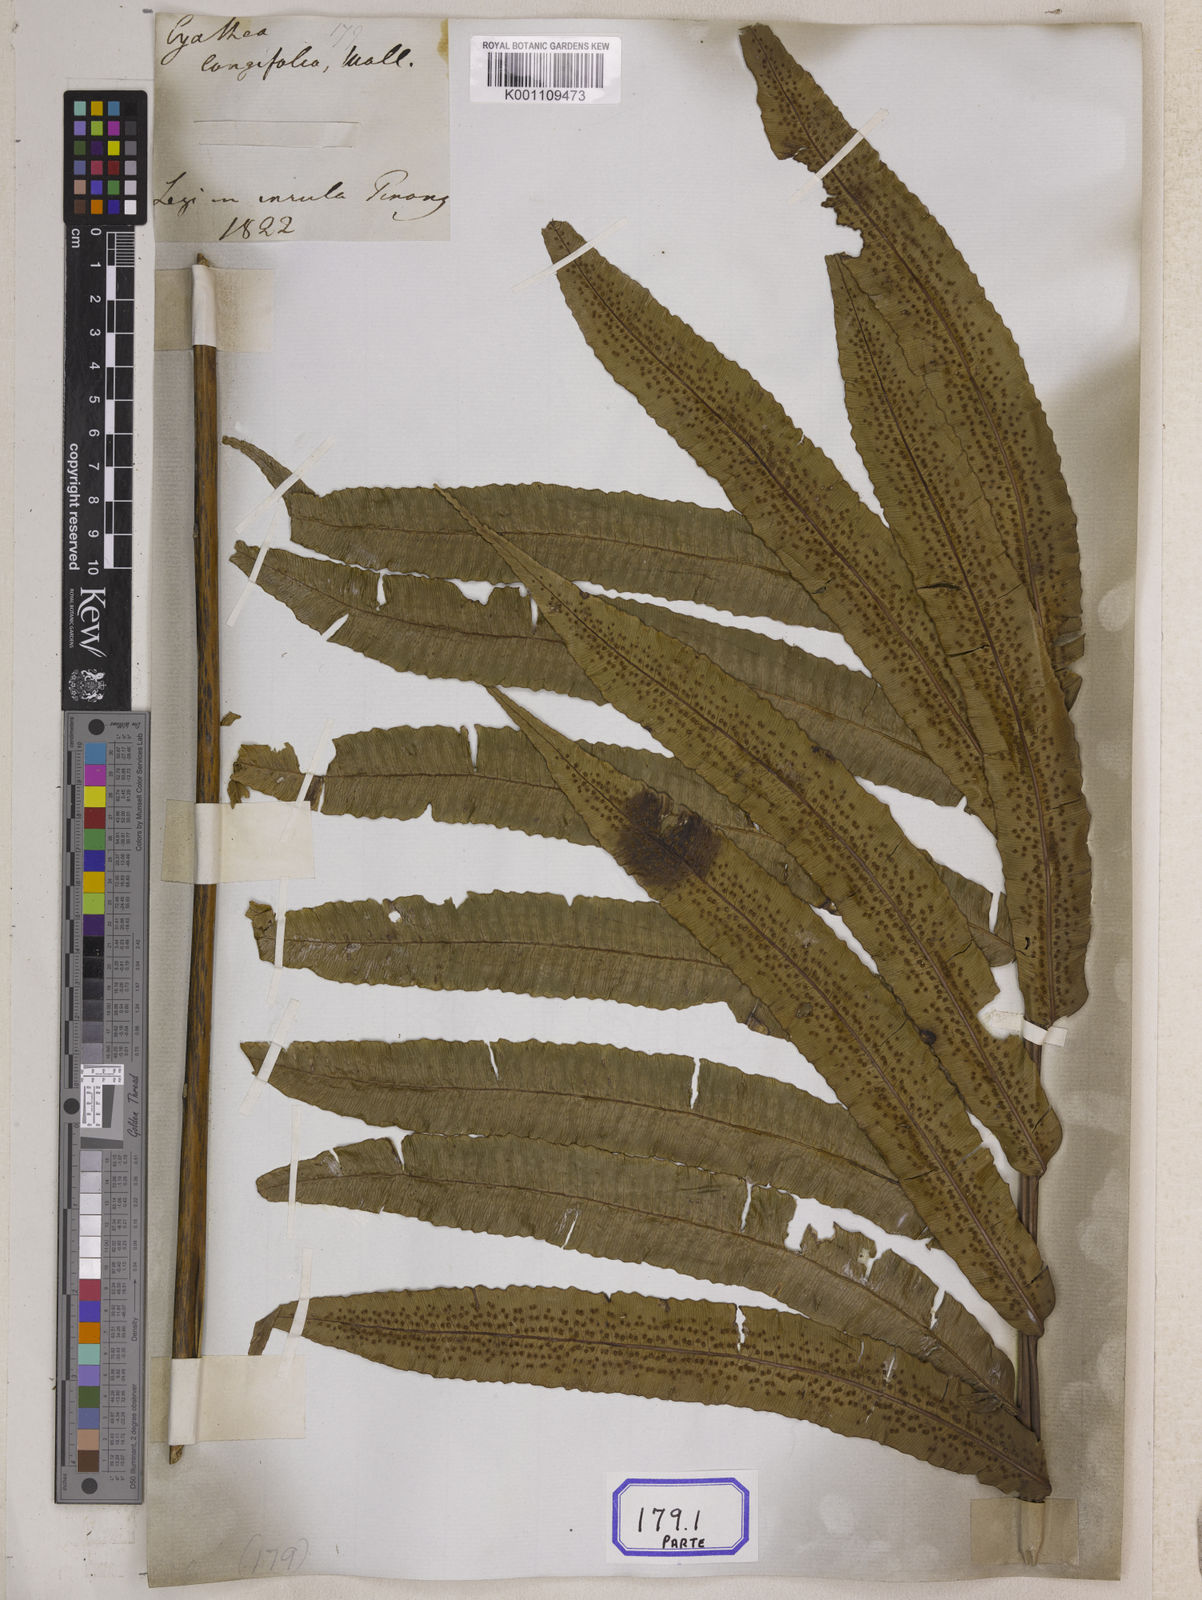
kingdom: Plantae
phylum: Tracheophyta
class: Polypodiopsida
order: Cyatheales
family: Cyatheaceae
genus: Sphaeropteris
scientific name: Sphaeropteris moluccana
